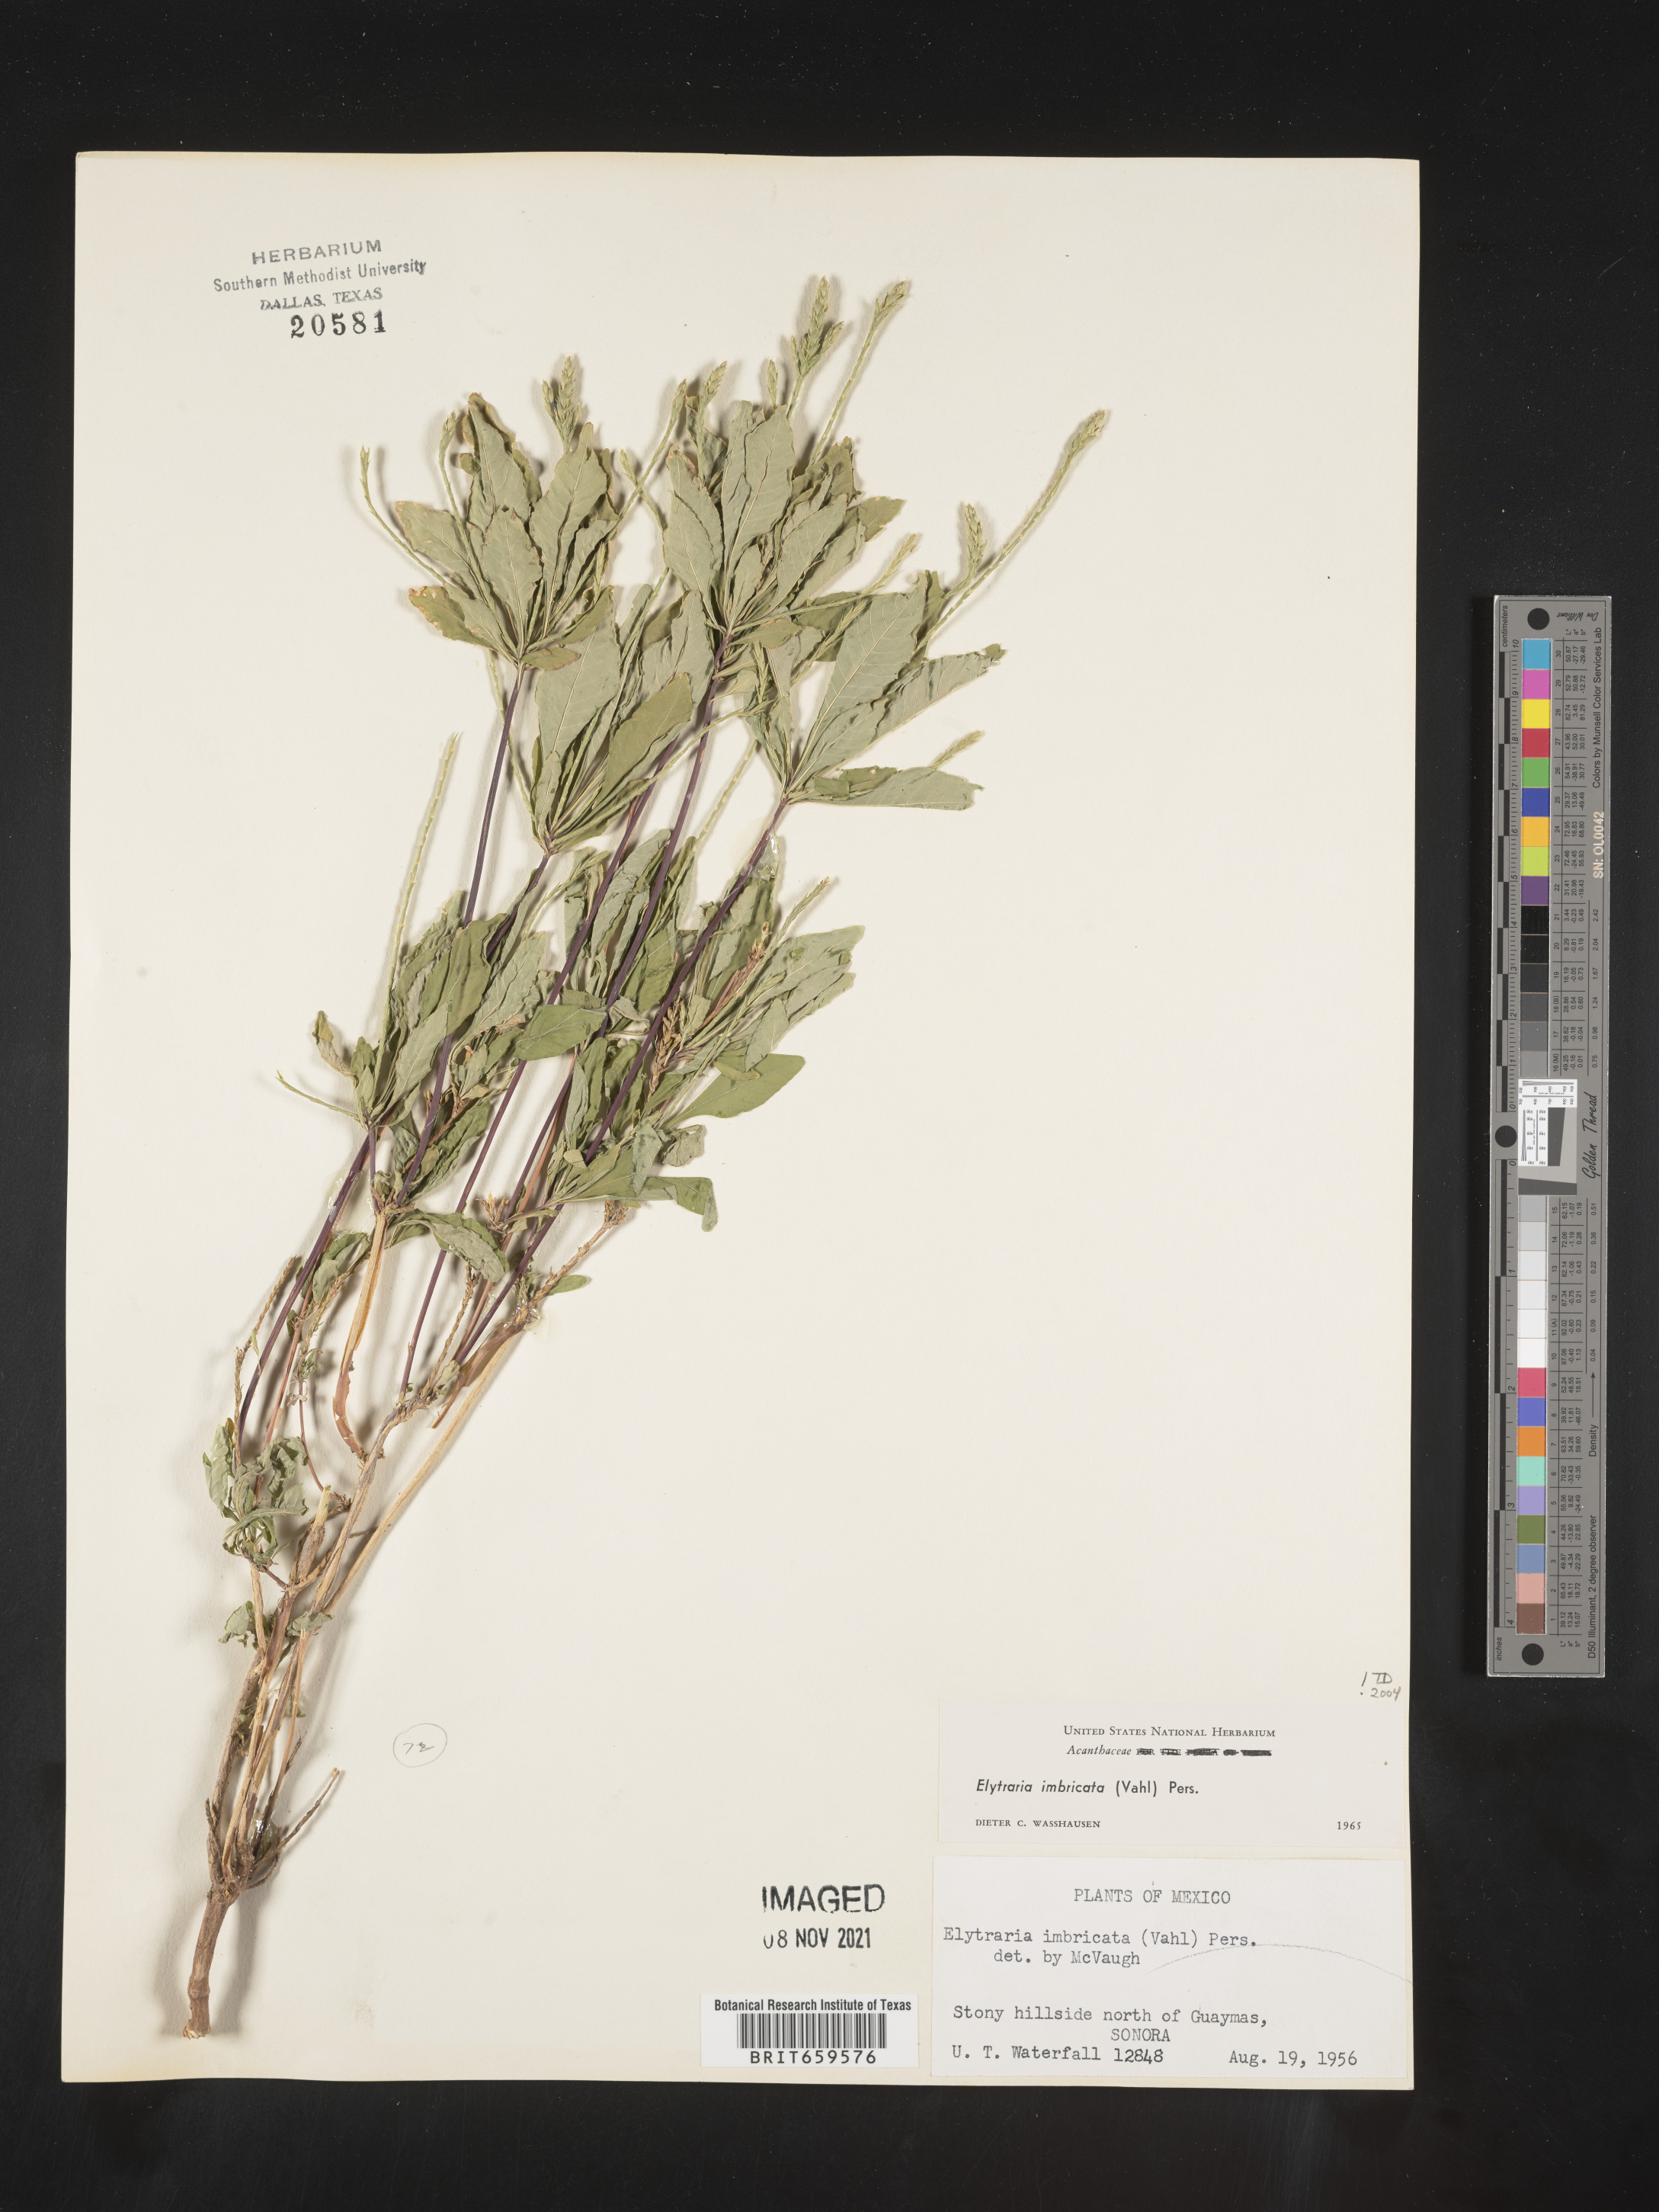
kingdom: Plantae
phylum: Tracheophyta
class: Magnoliopsida
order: Lamiales
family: Acanthaceae
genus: Elytraria
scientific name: Elytraria imbricata
